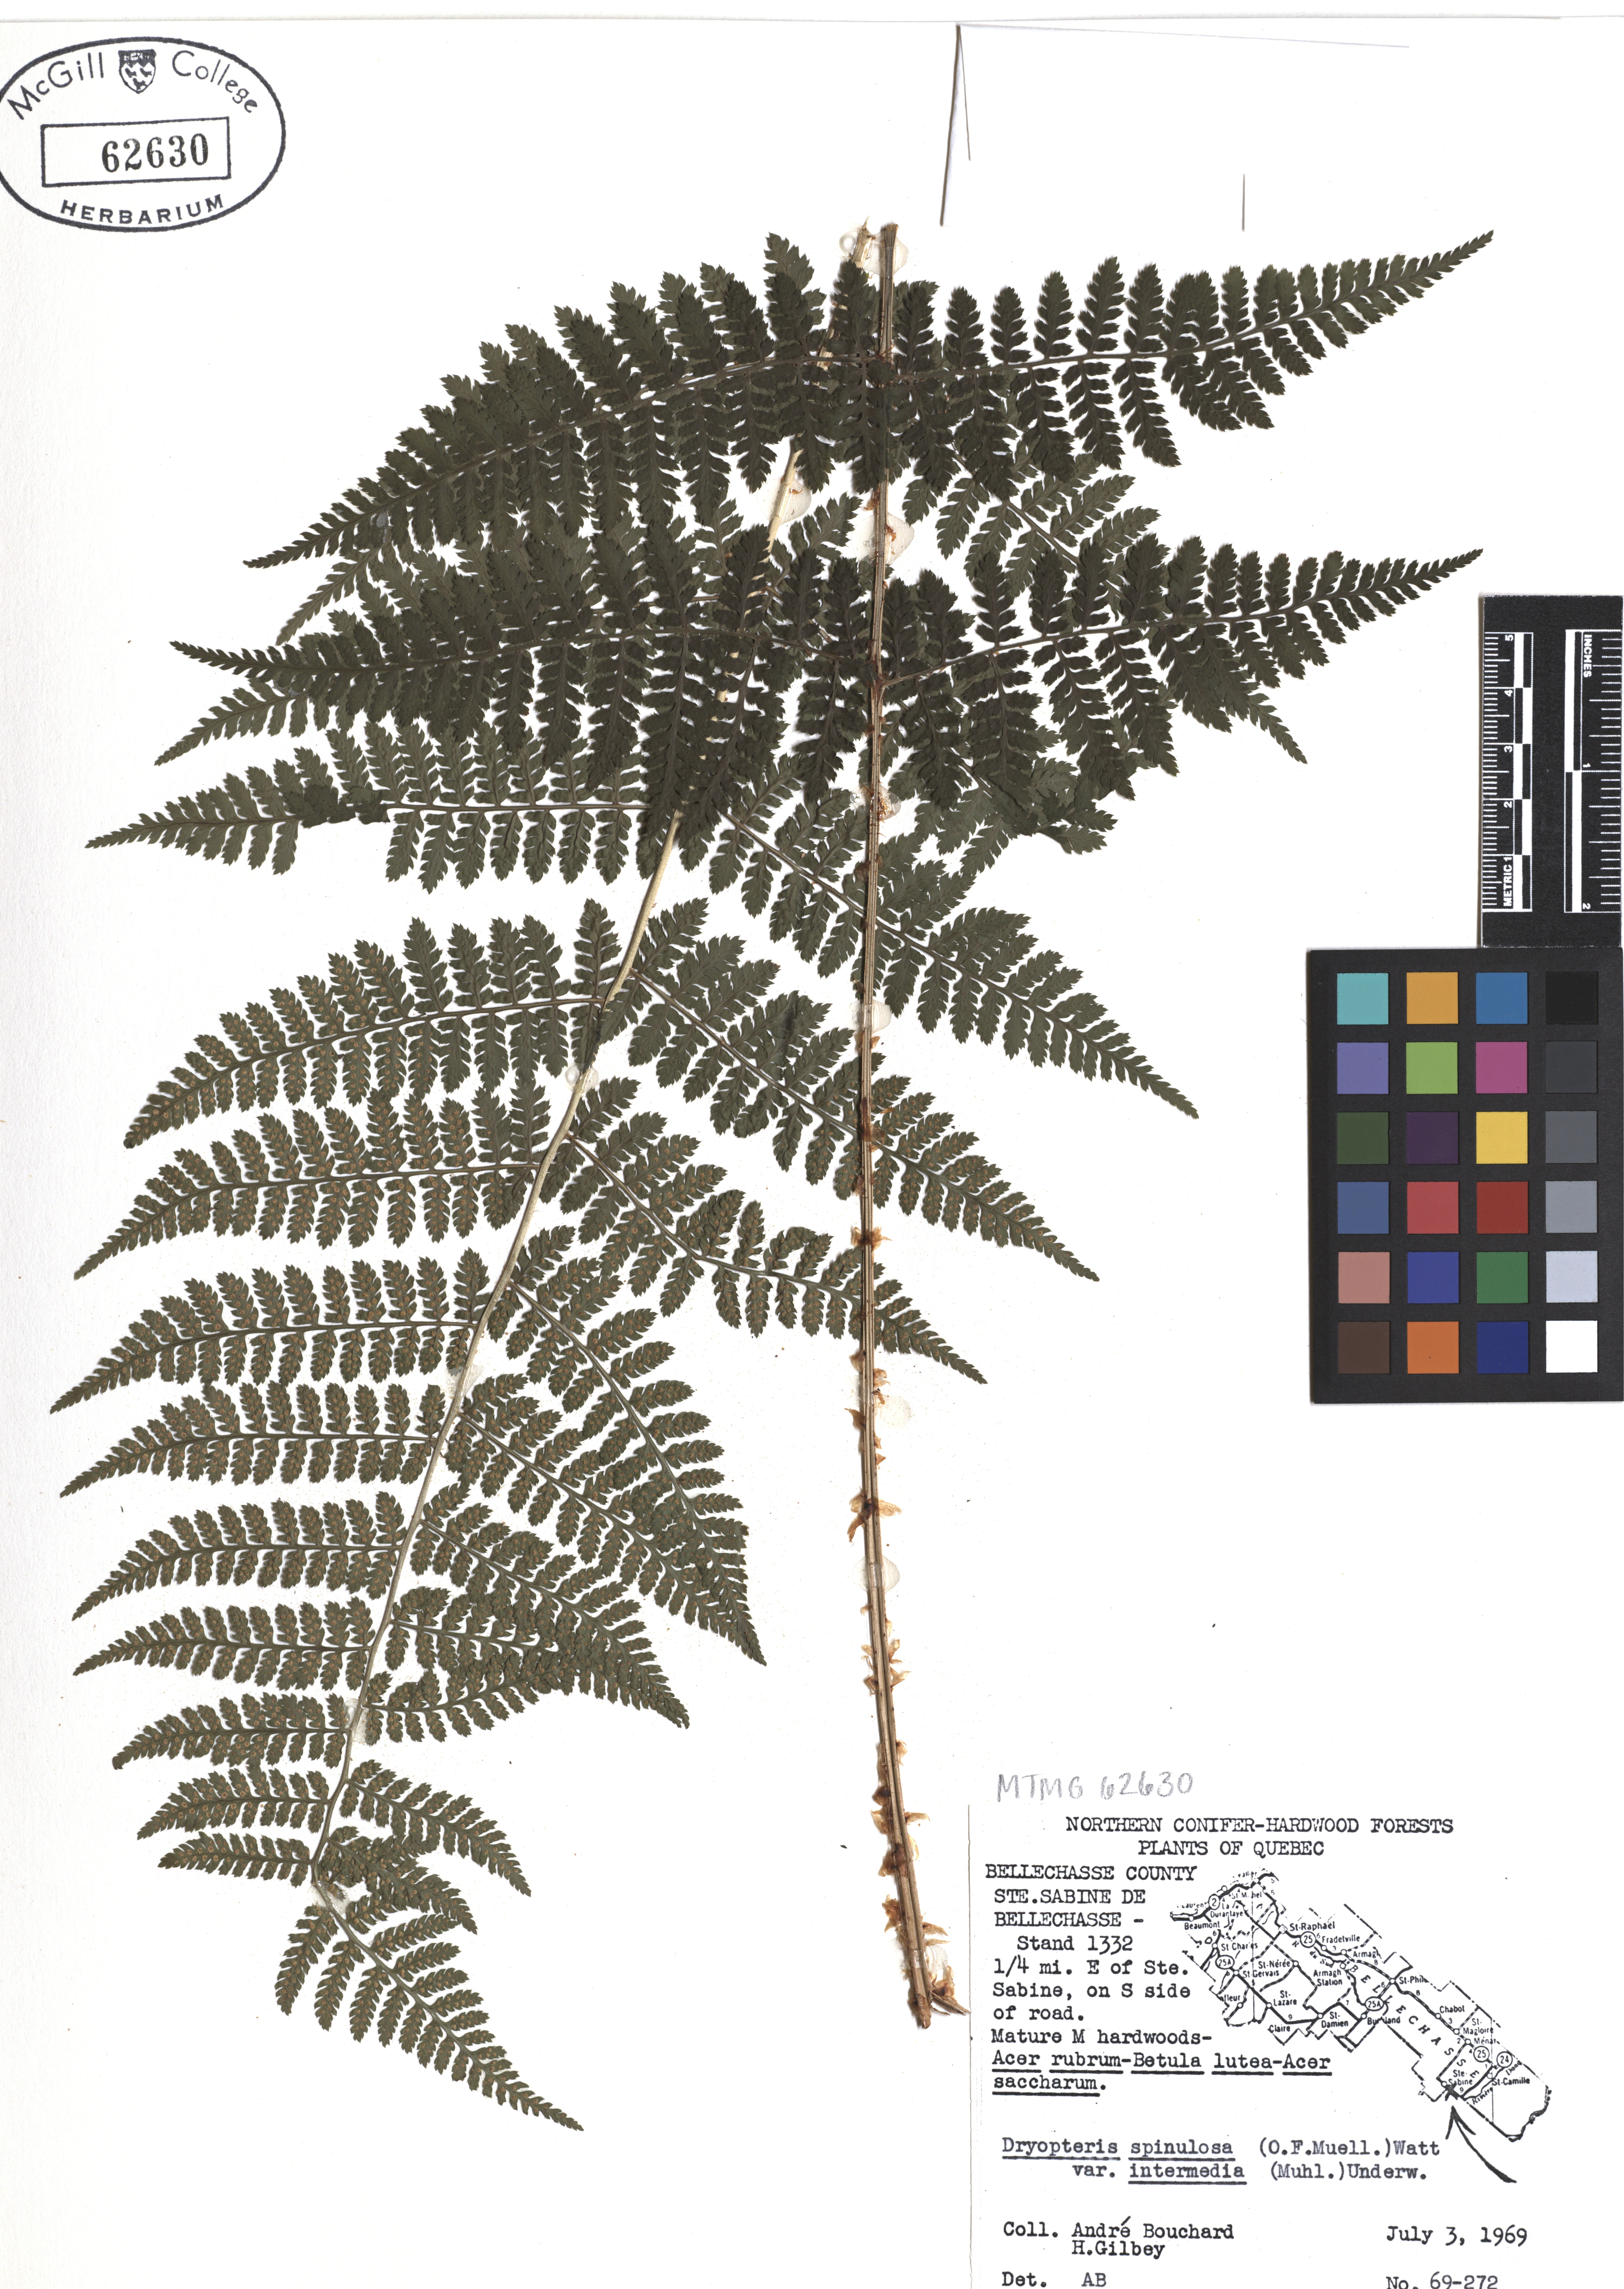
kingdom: Plantae
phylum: Tracheophyta
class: Polypodiopsida
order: Polypodiales
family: Dryopteridaceae
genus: Dryopteris
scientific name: Dryopteris intermedia
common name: Evergreen wood fern
